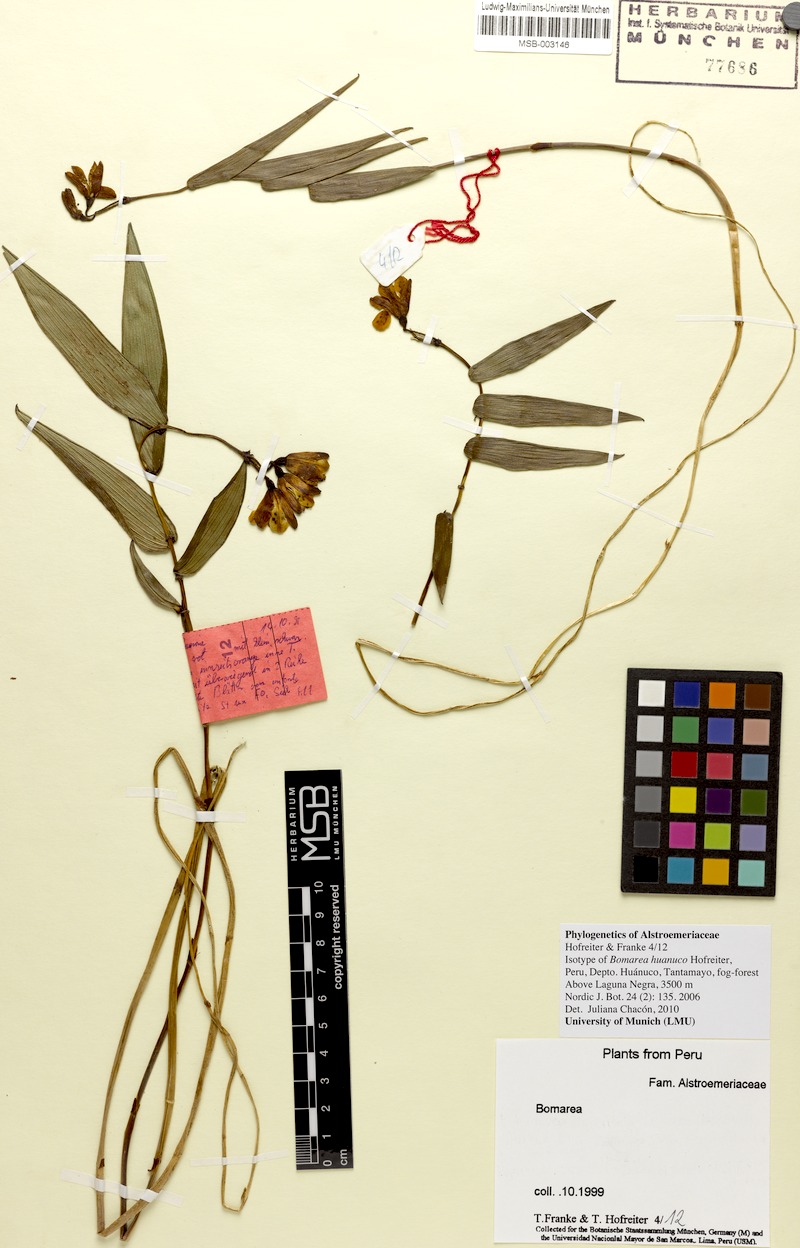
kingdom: Plantae
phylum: Tracheophyta
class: Liliopsida
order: Liliales
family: Alstroemeriaceae
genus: Bomarea
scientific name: Bomarea huanuco
